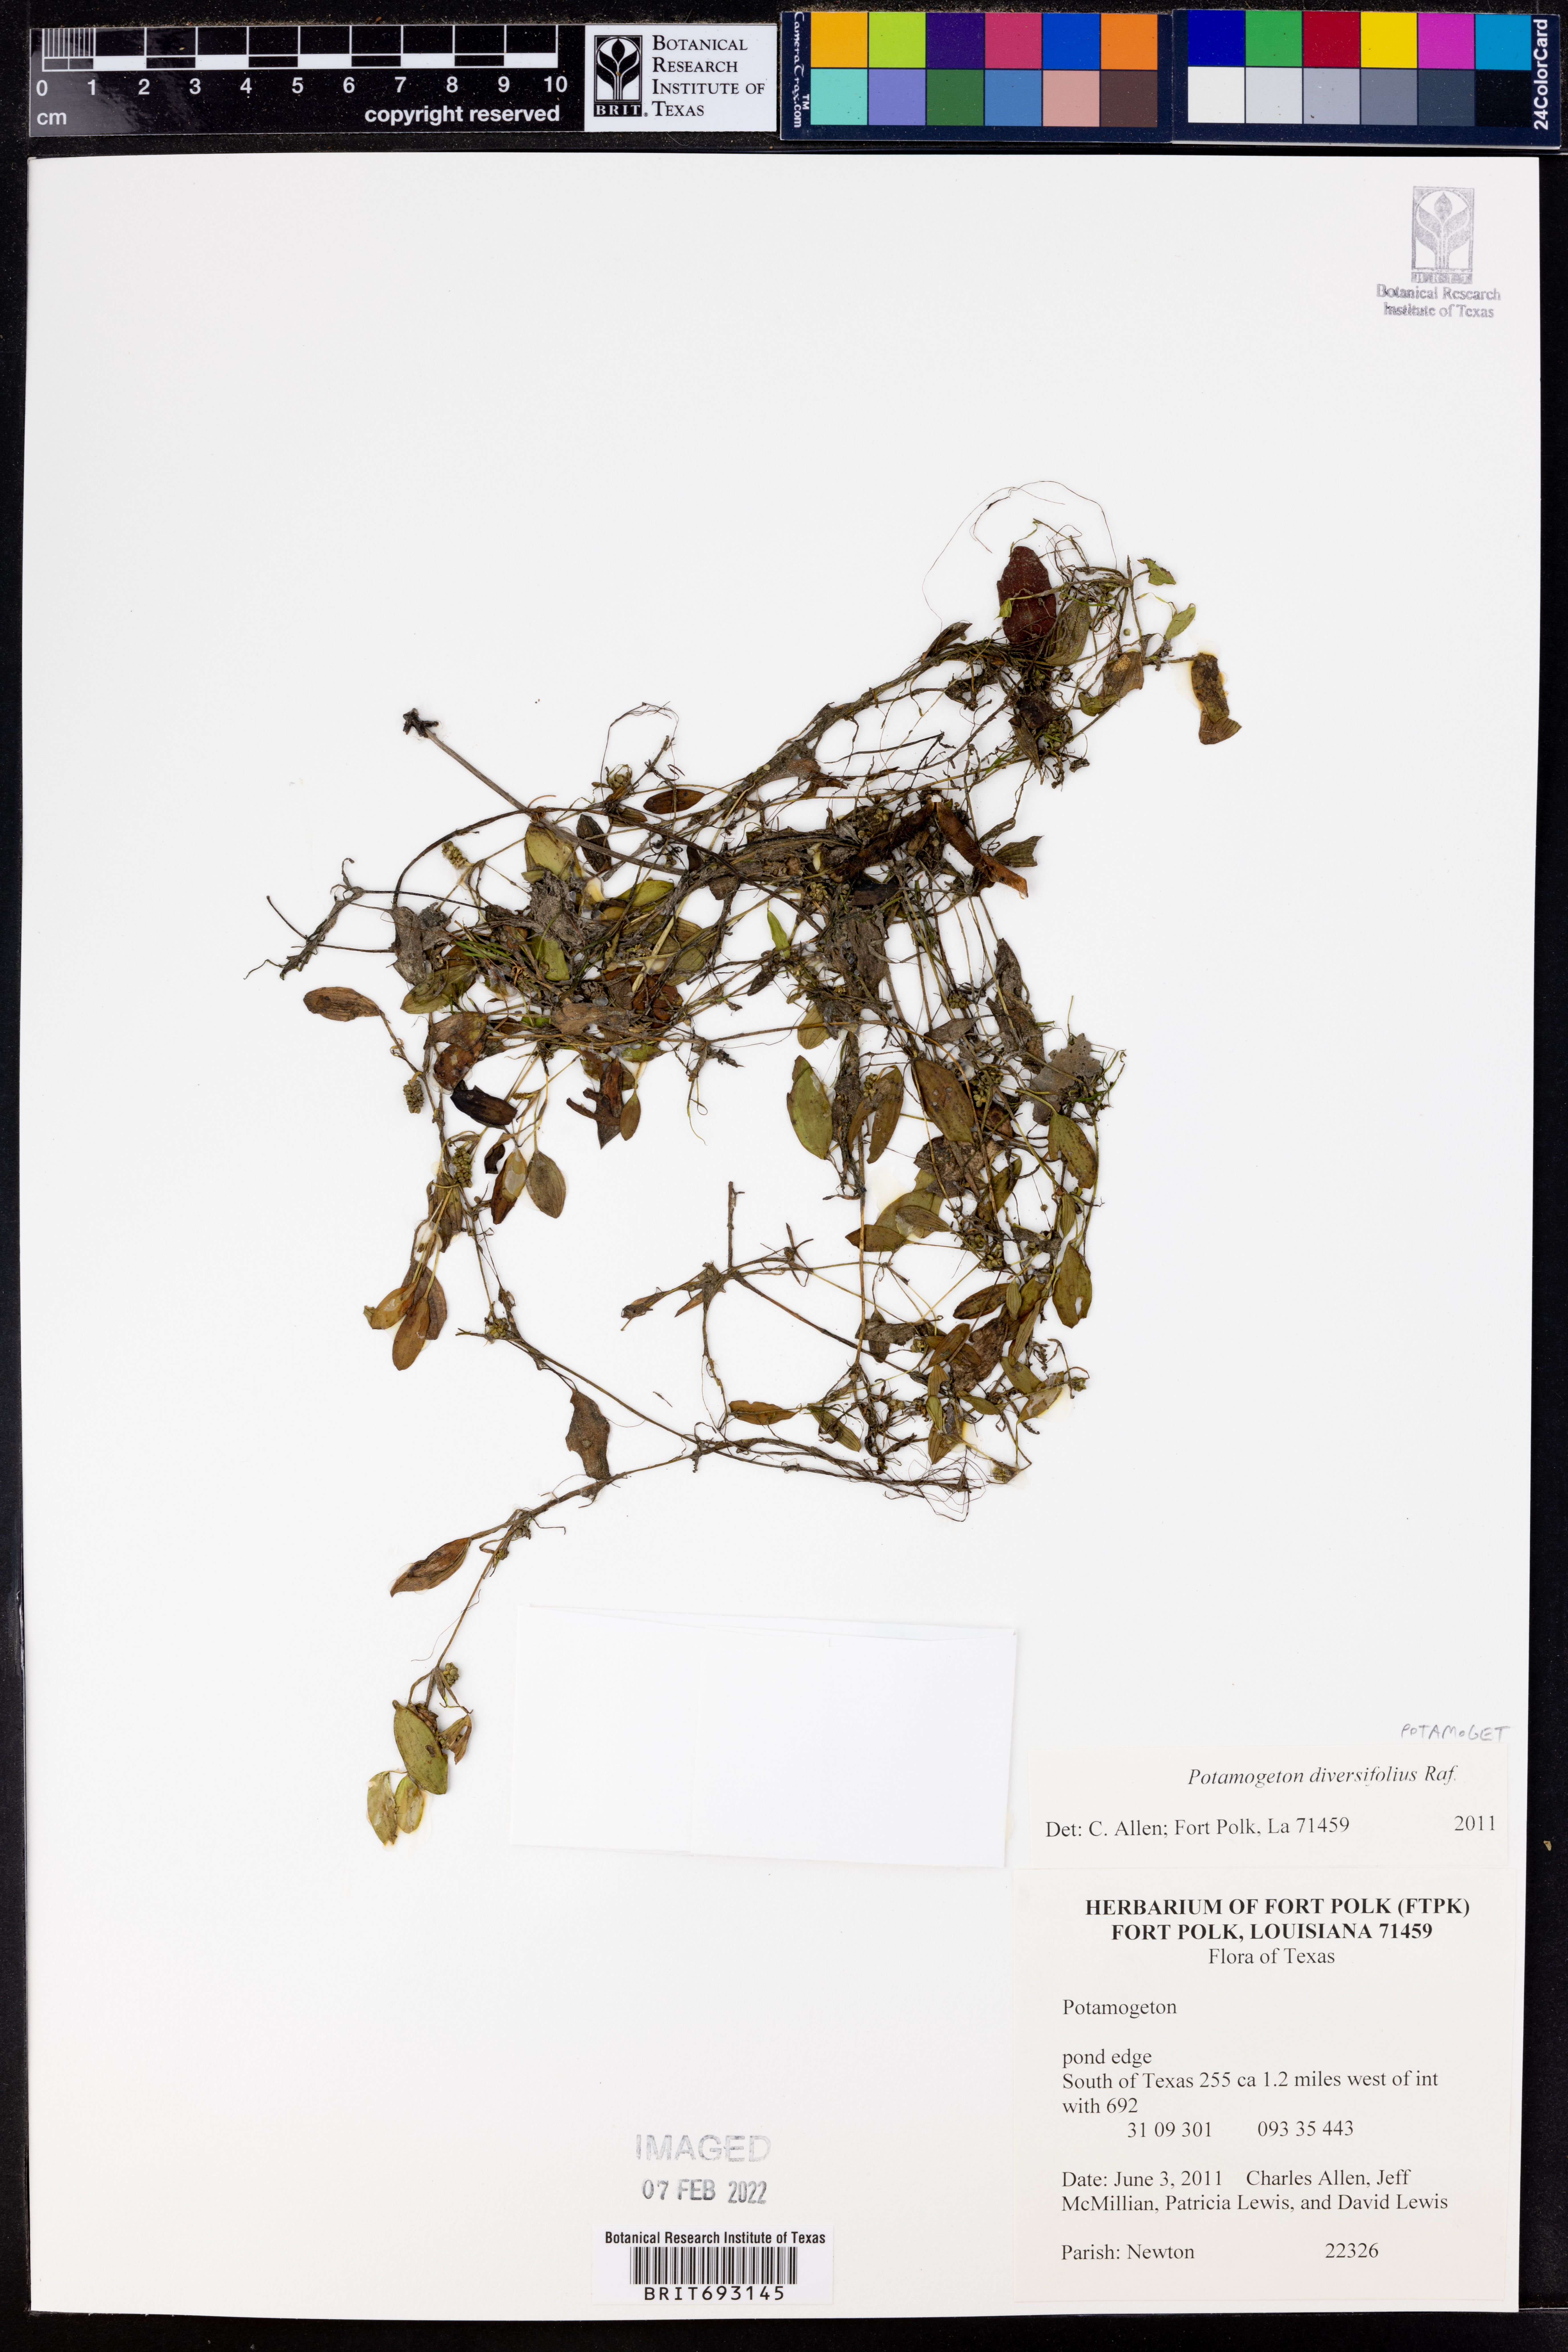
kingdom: Plantae
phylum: Tracheophyta
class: Liliopsida
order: Alismatales
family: Potamogetonaceae
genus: Potamogeton
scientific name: Potamogeton diversifolius
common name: Water-thread pondweed
